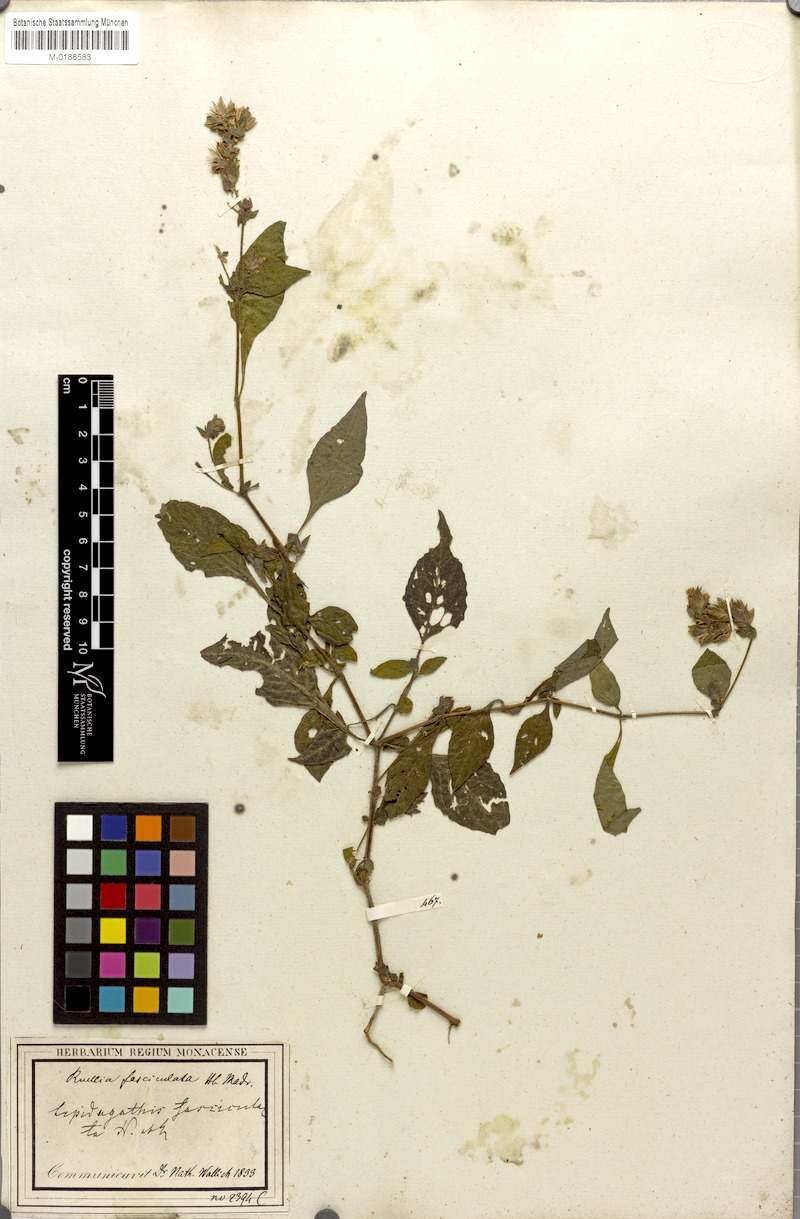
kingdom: Plantae
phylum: Tracheophyta
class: Magnoliopsida
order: Lamiales
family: Acanthaceae
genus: Lepidagathis
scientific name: Lepidagathis fasciculata
